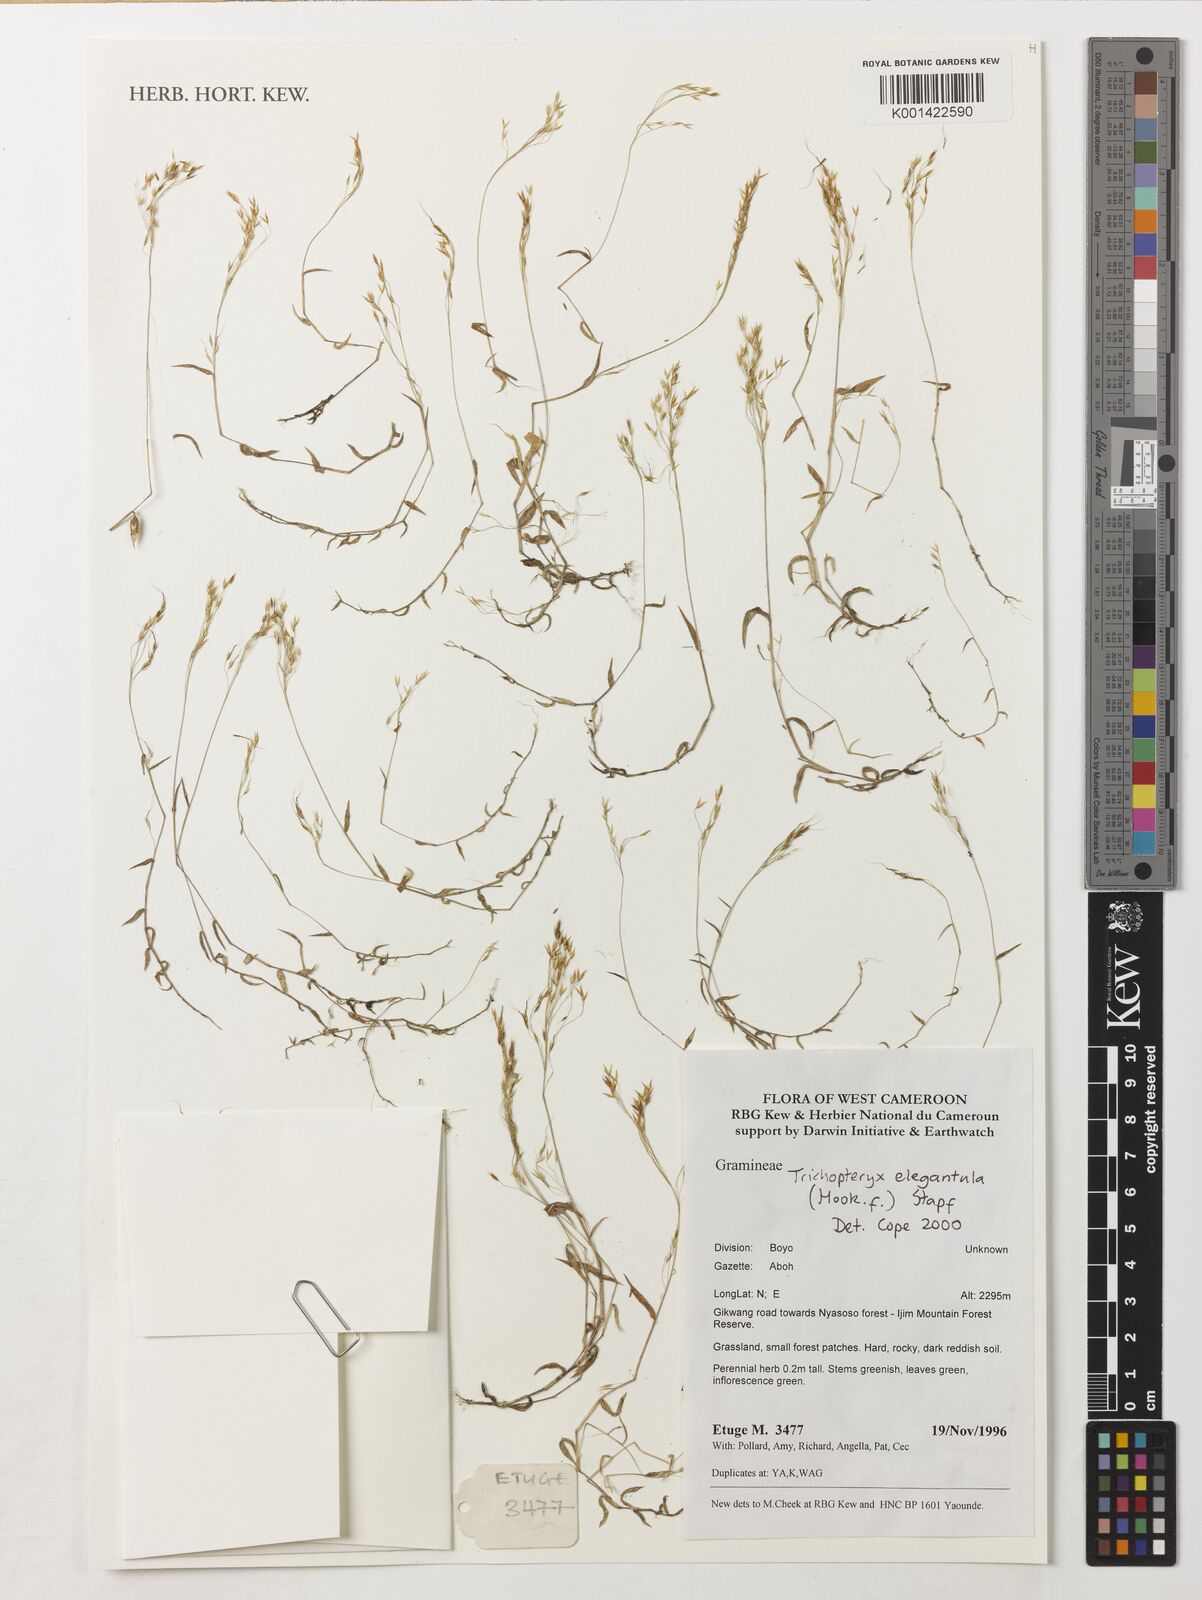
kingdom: Plantae
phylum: Tracheophyta
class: Liliopsida
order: Poales
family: Poaceae
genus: Trichopteryx
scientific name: Trichopteryx elegantula
